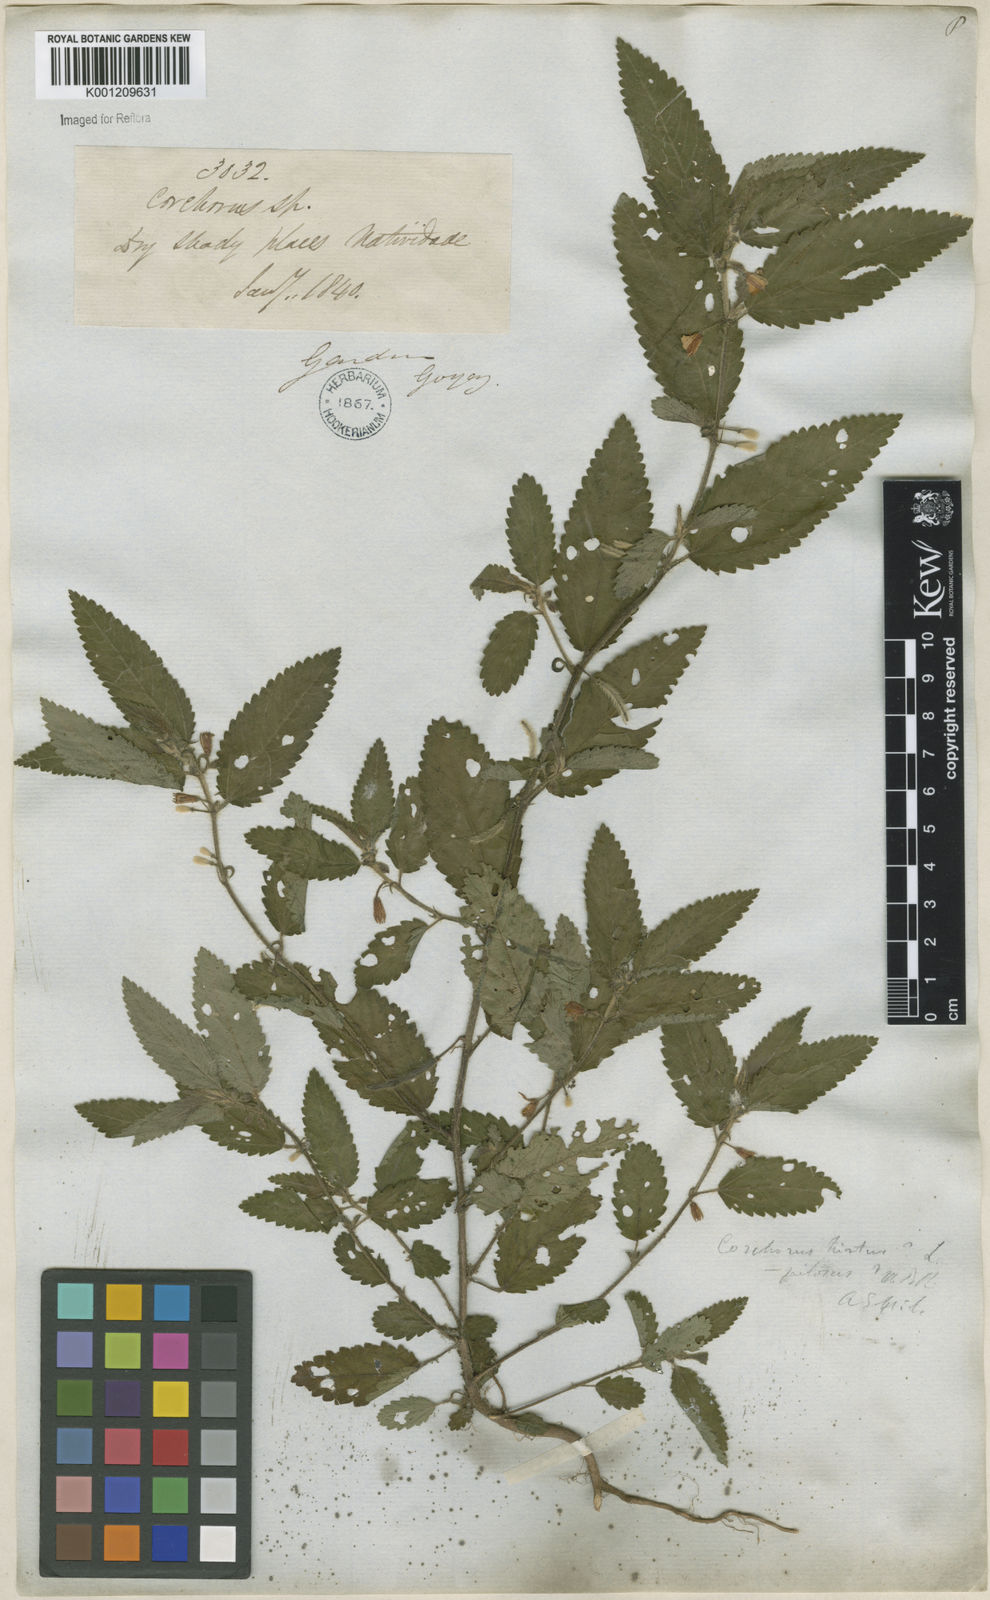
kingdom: Plantae
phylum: Tracheophyta
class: Magnoliopsida
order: Malvales
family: Malvaceae
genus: Corchorus
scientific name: Corchorus hirtus
